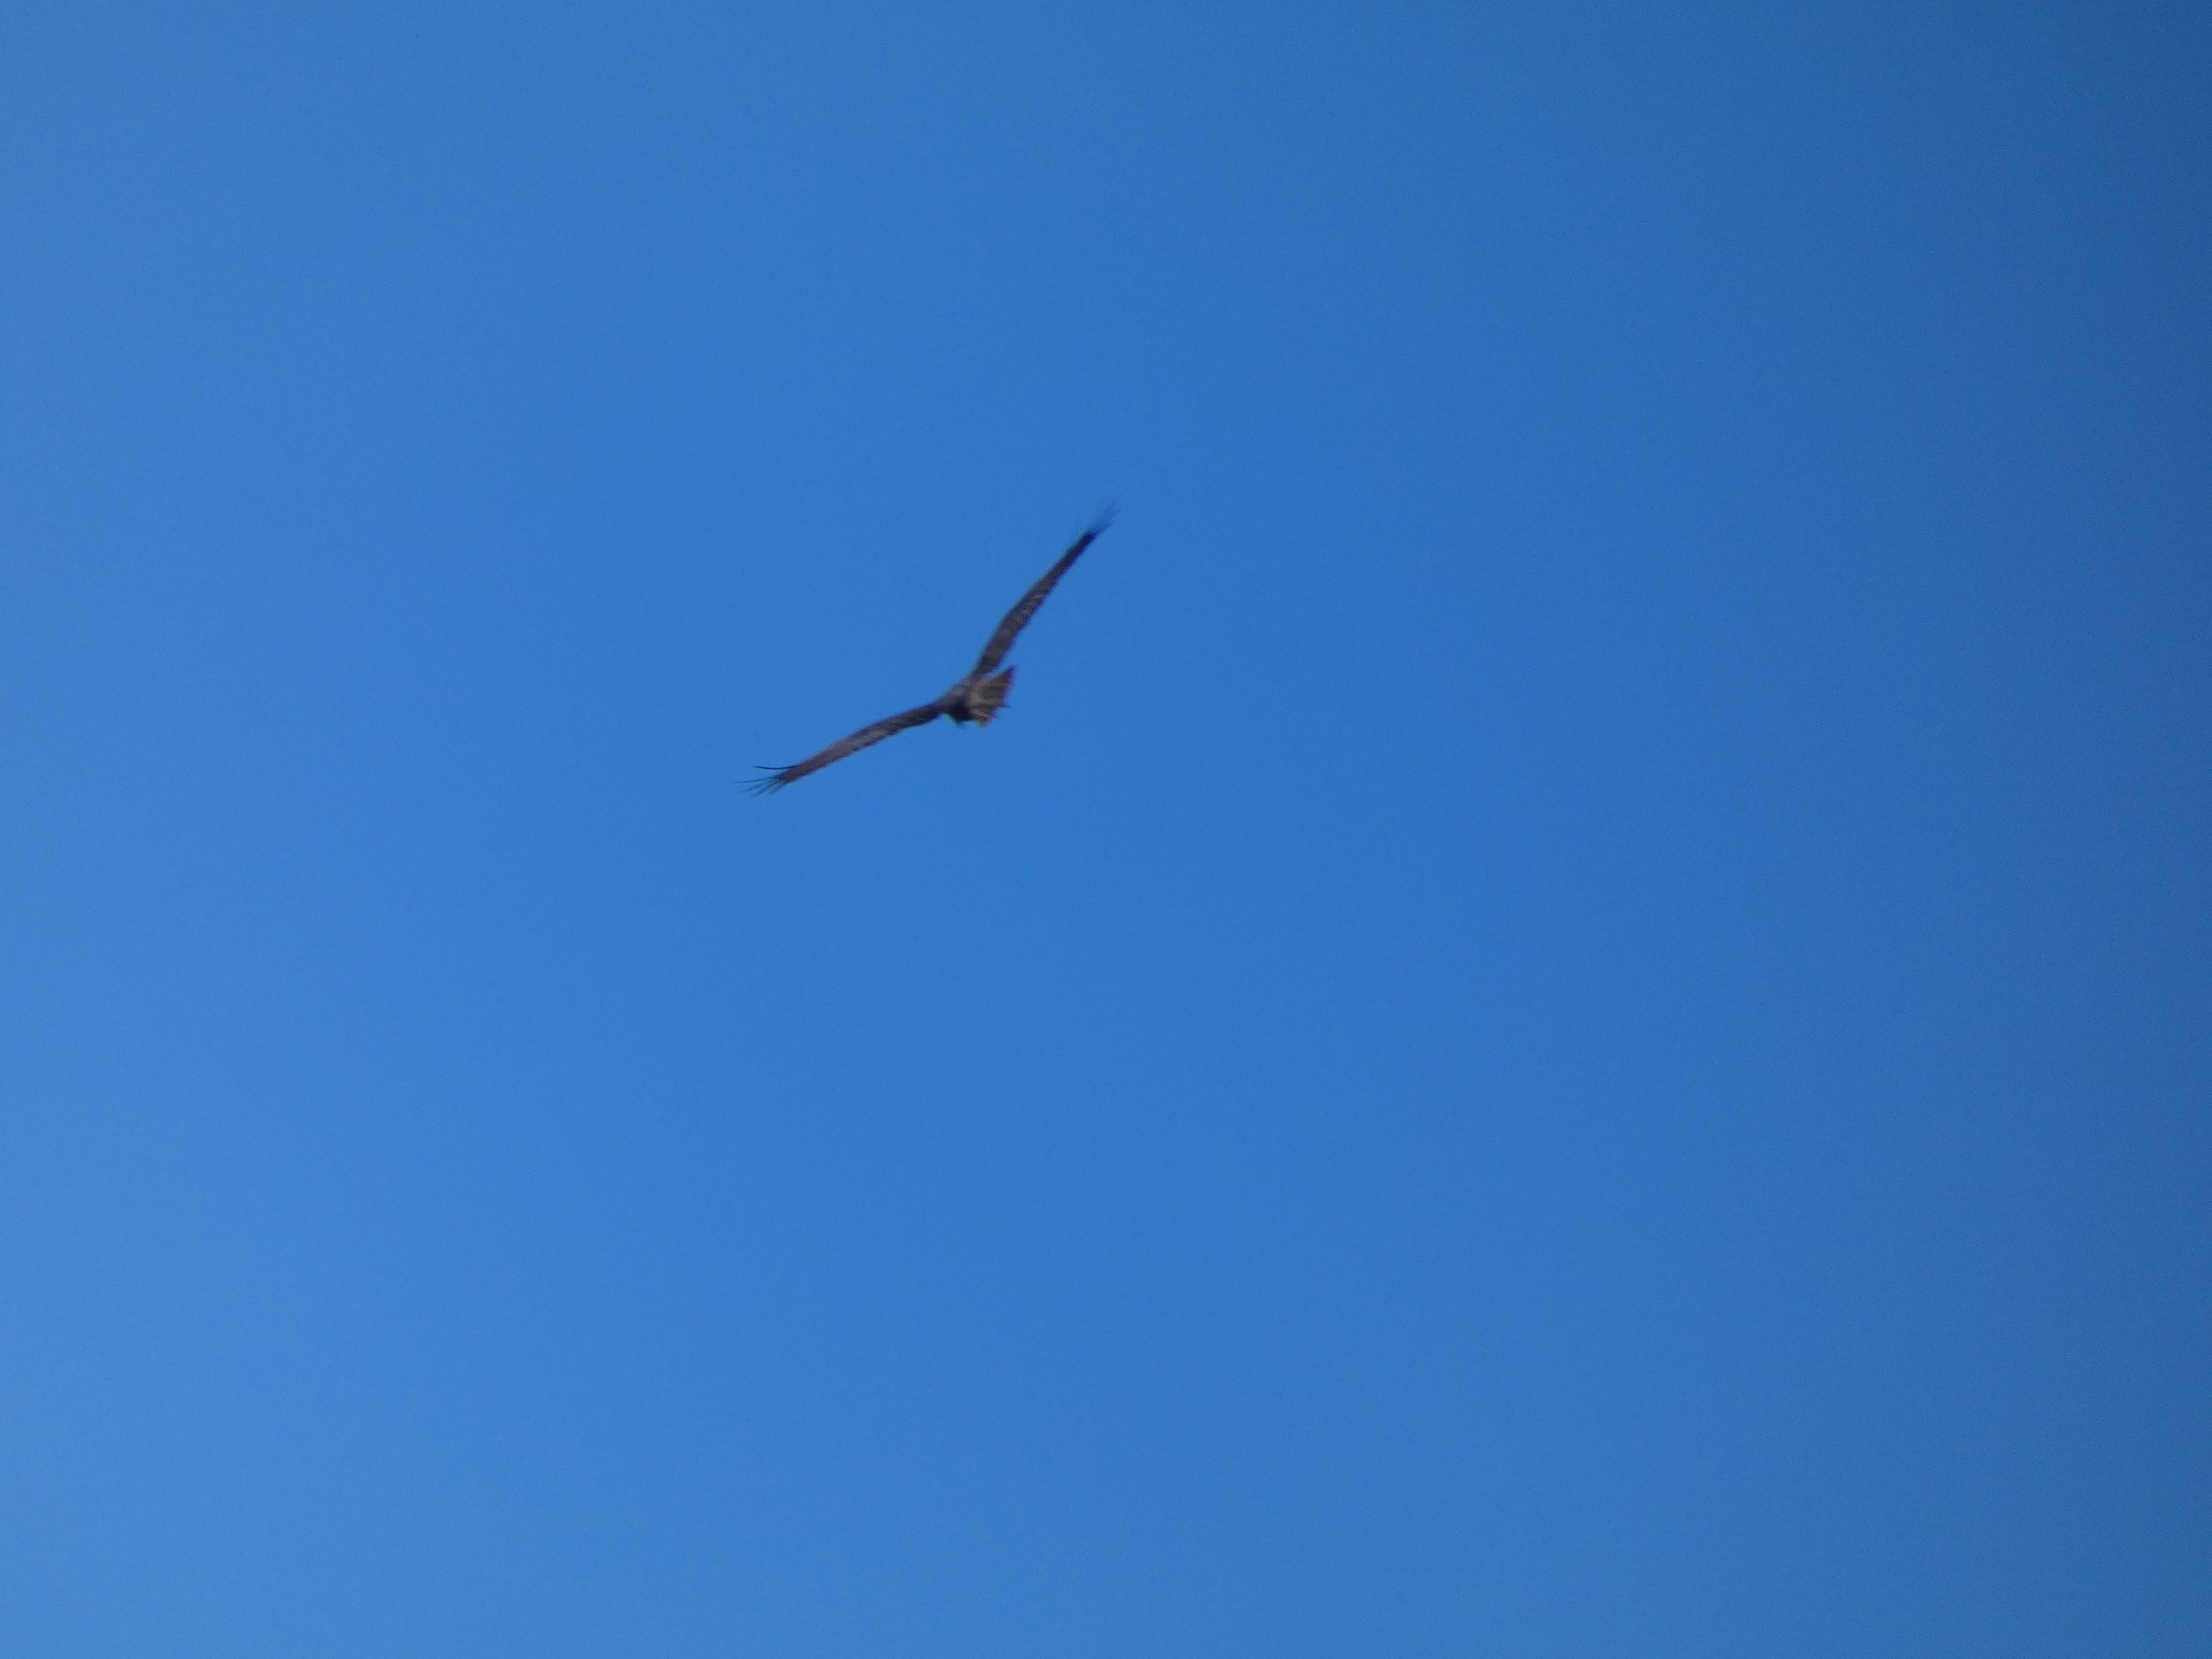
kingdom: Animalia
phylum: Chordata
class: Aves
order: Accipitriformes
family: Accipitridae
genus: Circus
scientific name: Circus aeruginosus
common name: Rørhøg
